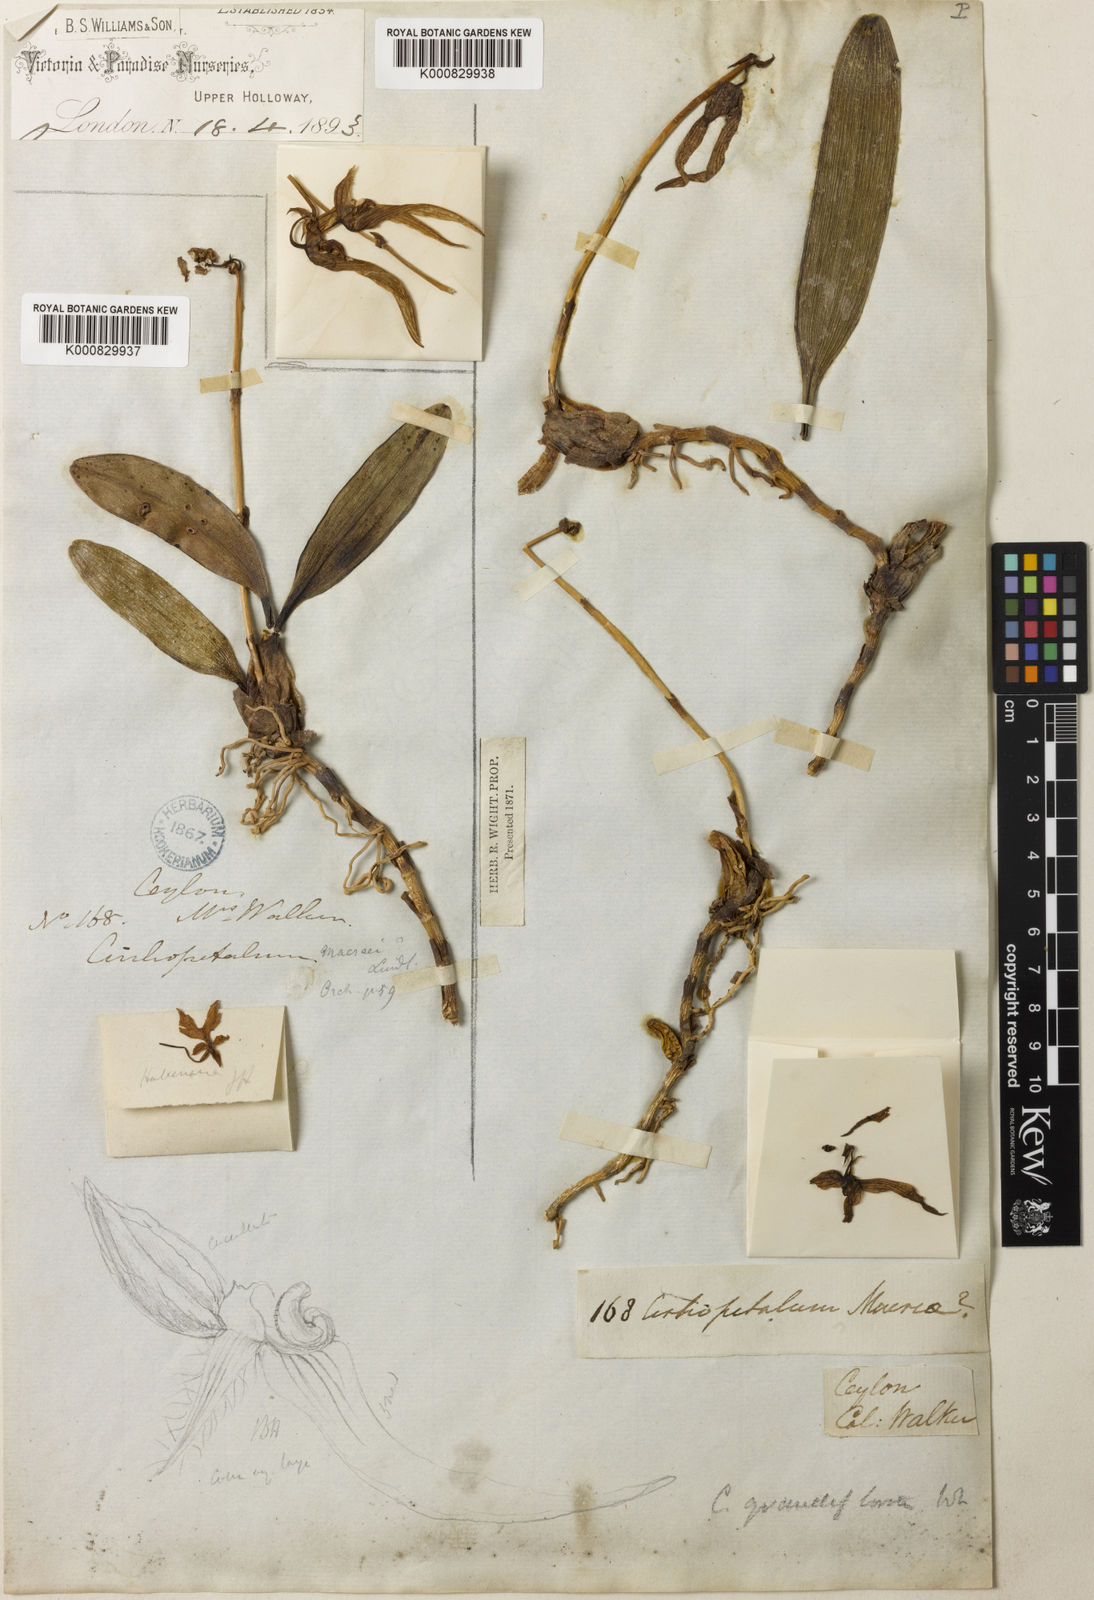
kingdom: Plantae
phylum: Tracheophyta
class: Liliopsida
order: Asparagales
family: Orchidaceae
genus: Bulbophyllum
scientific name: Bulbophyllum wightii
